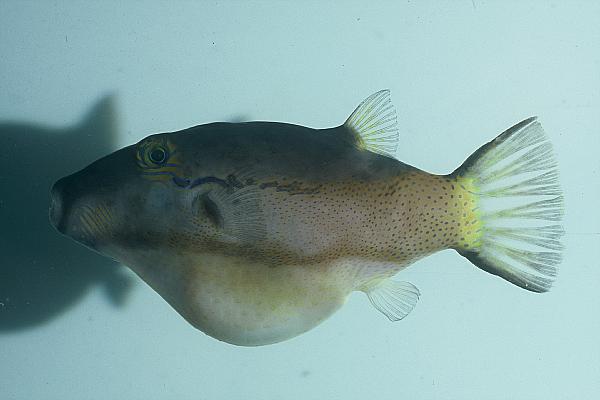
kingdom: Animalia
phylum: Chordata
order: Tetraodontiformes
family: Tetraodontidae
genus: Canthigaster
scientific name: Canthigaster smithae
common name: Bicolored toby
